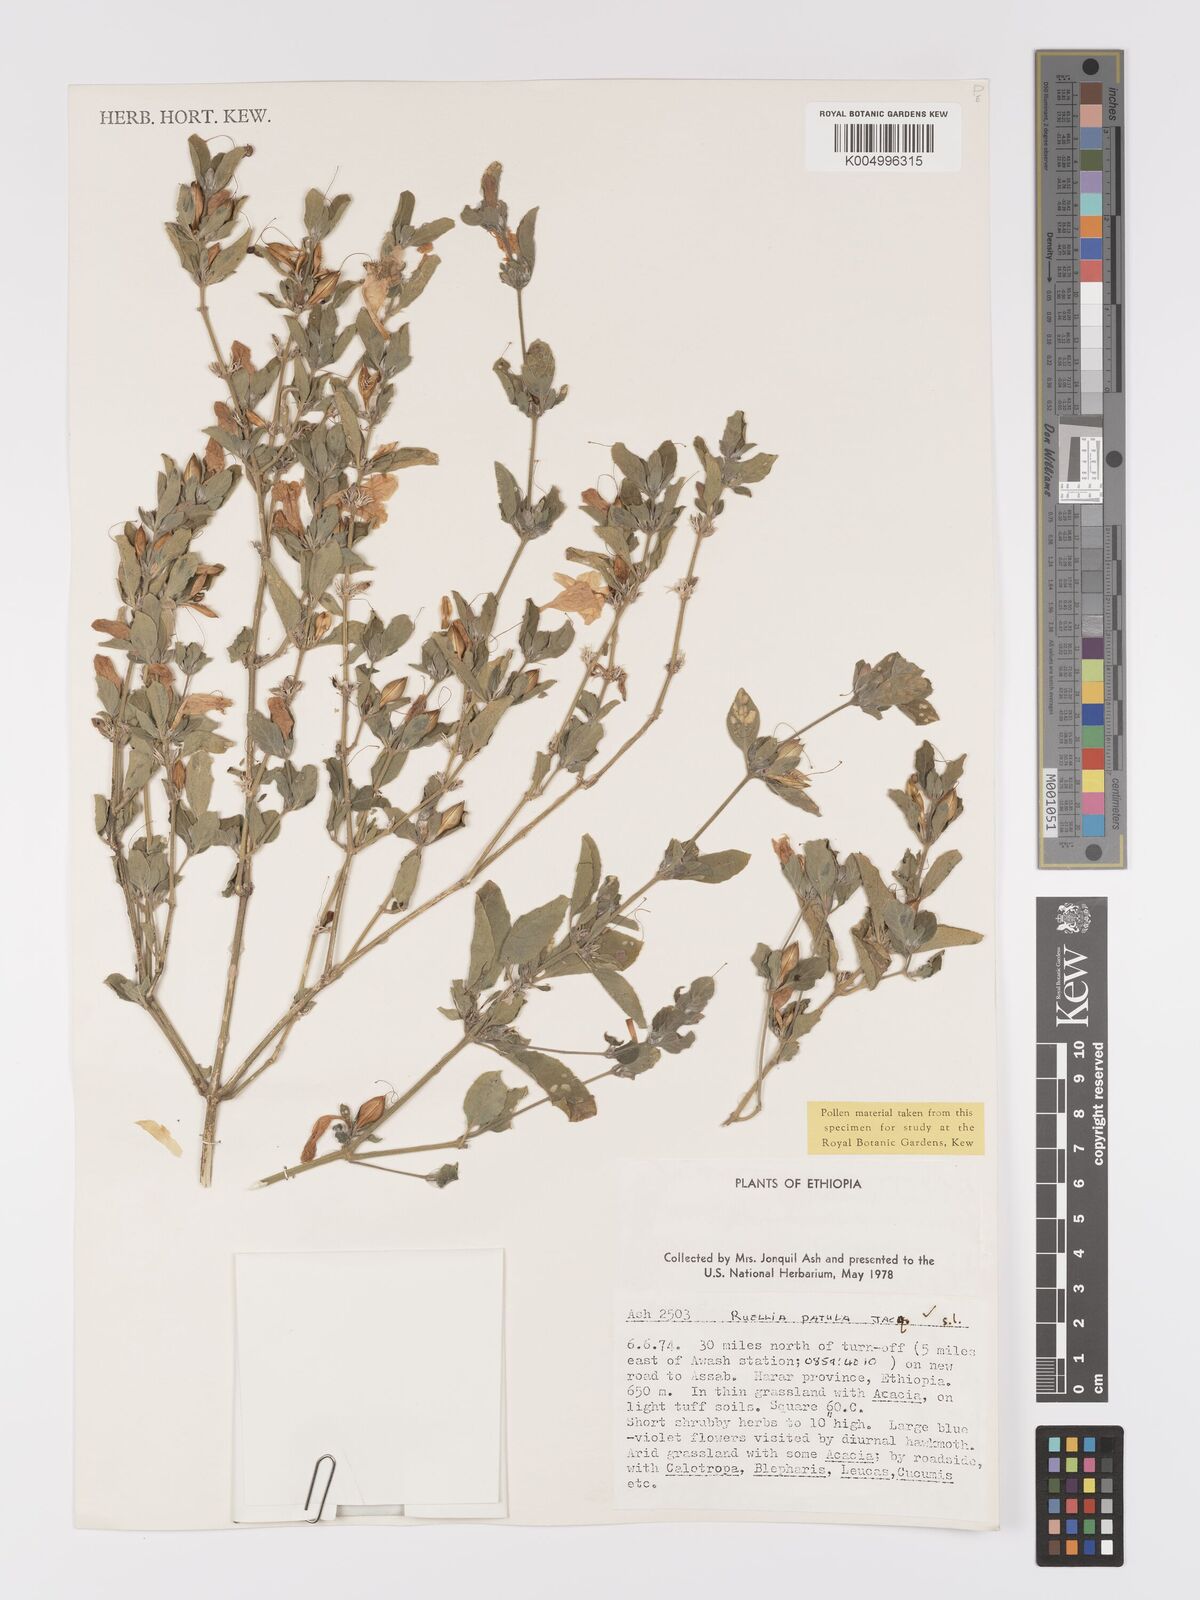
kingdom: Plantae
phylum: Tracheophyta
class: Magnoliopsida
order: Lamiales
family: Acanthaceae
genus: Ruellia
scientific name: Ruellia patula
